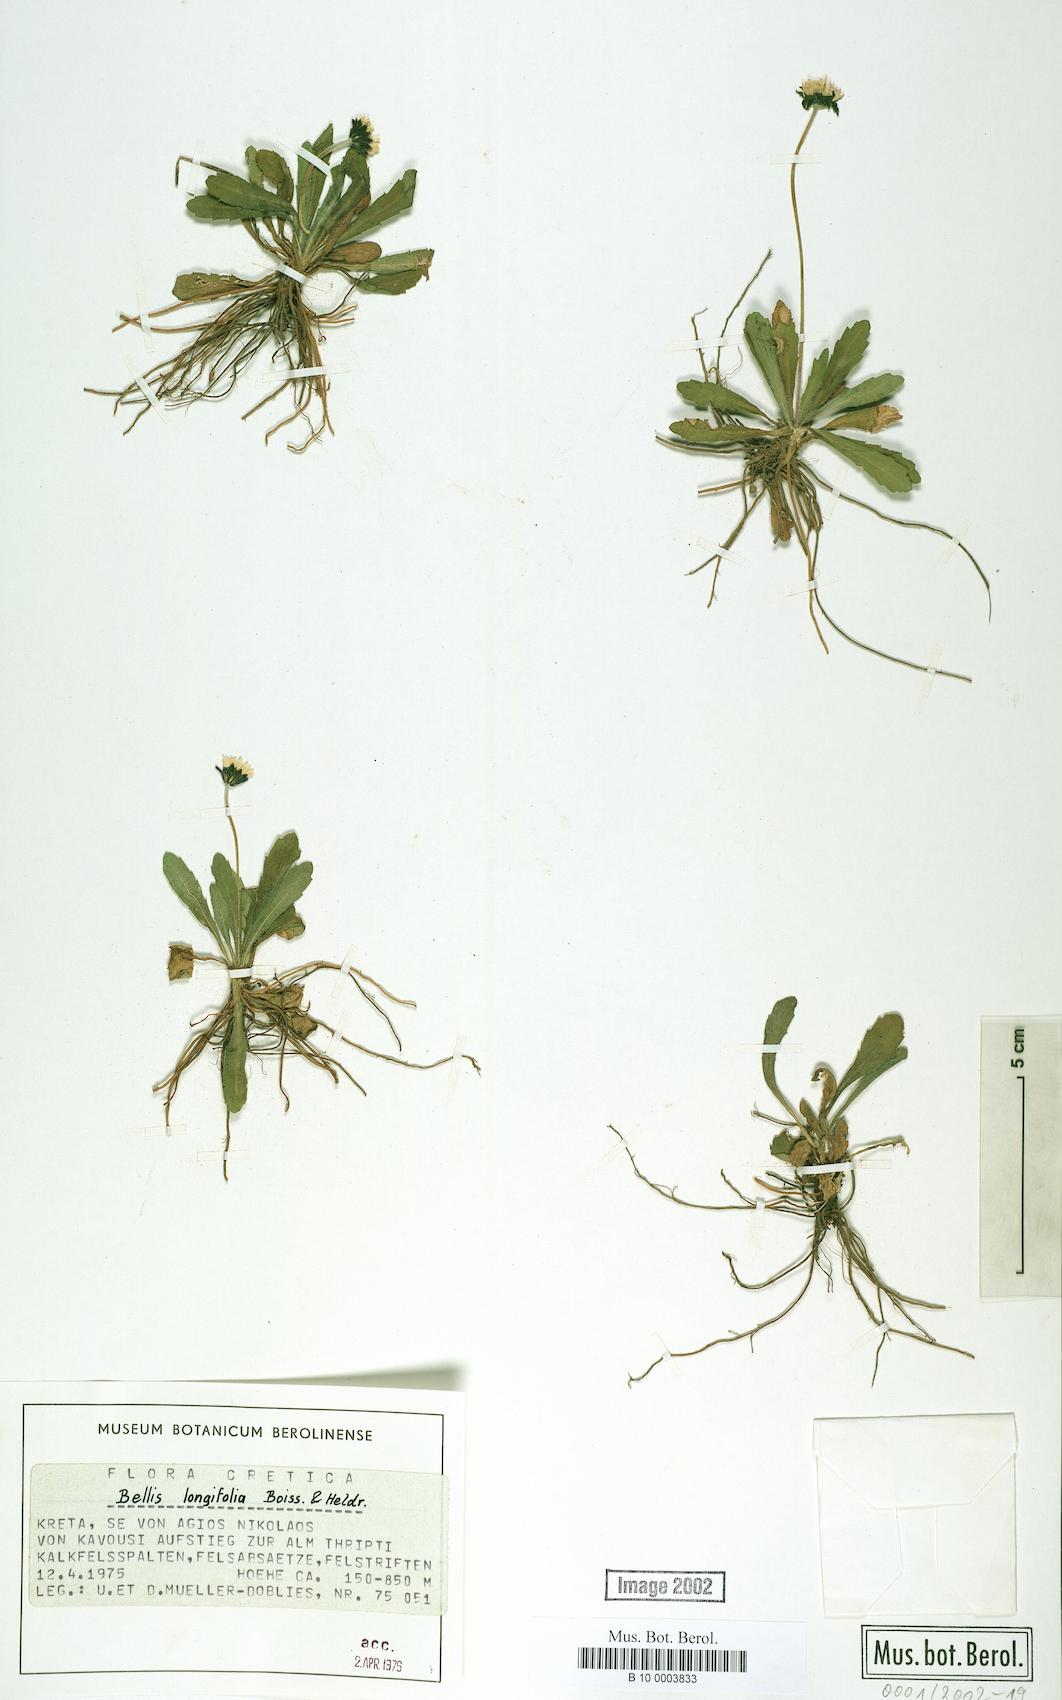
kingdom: Plantae
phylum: Tracheophyta
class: Magnoliopsida
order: Asterales
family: Asteraceae
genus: Bellis
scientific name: Bellis longifolia
